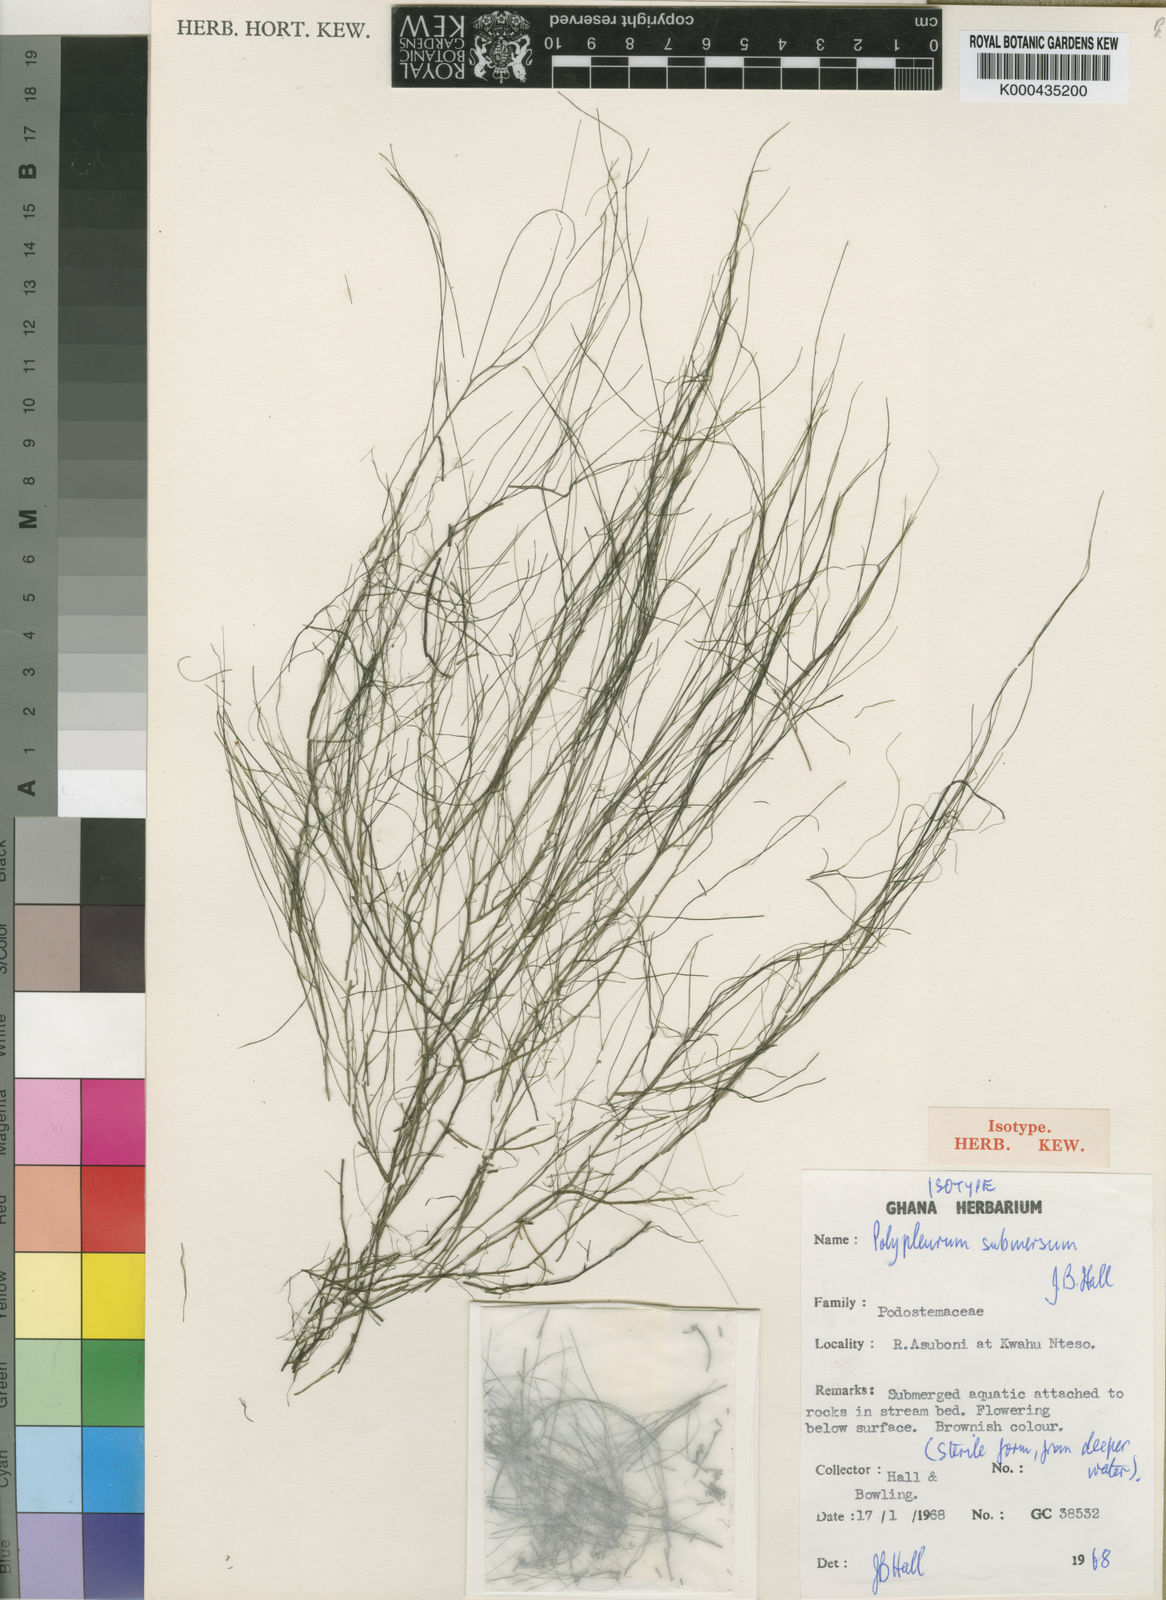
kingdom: Plantae
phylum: Tracheophyta
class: Magnoliopsida
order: Malpighiales
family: Podostemaceae
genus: Saxicolella
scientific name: Saxicolella submersa
